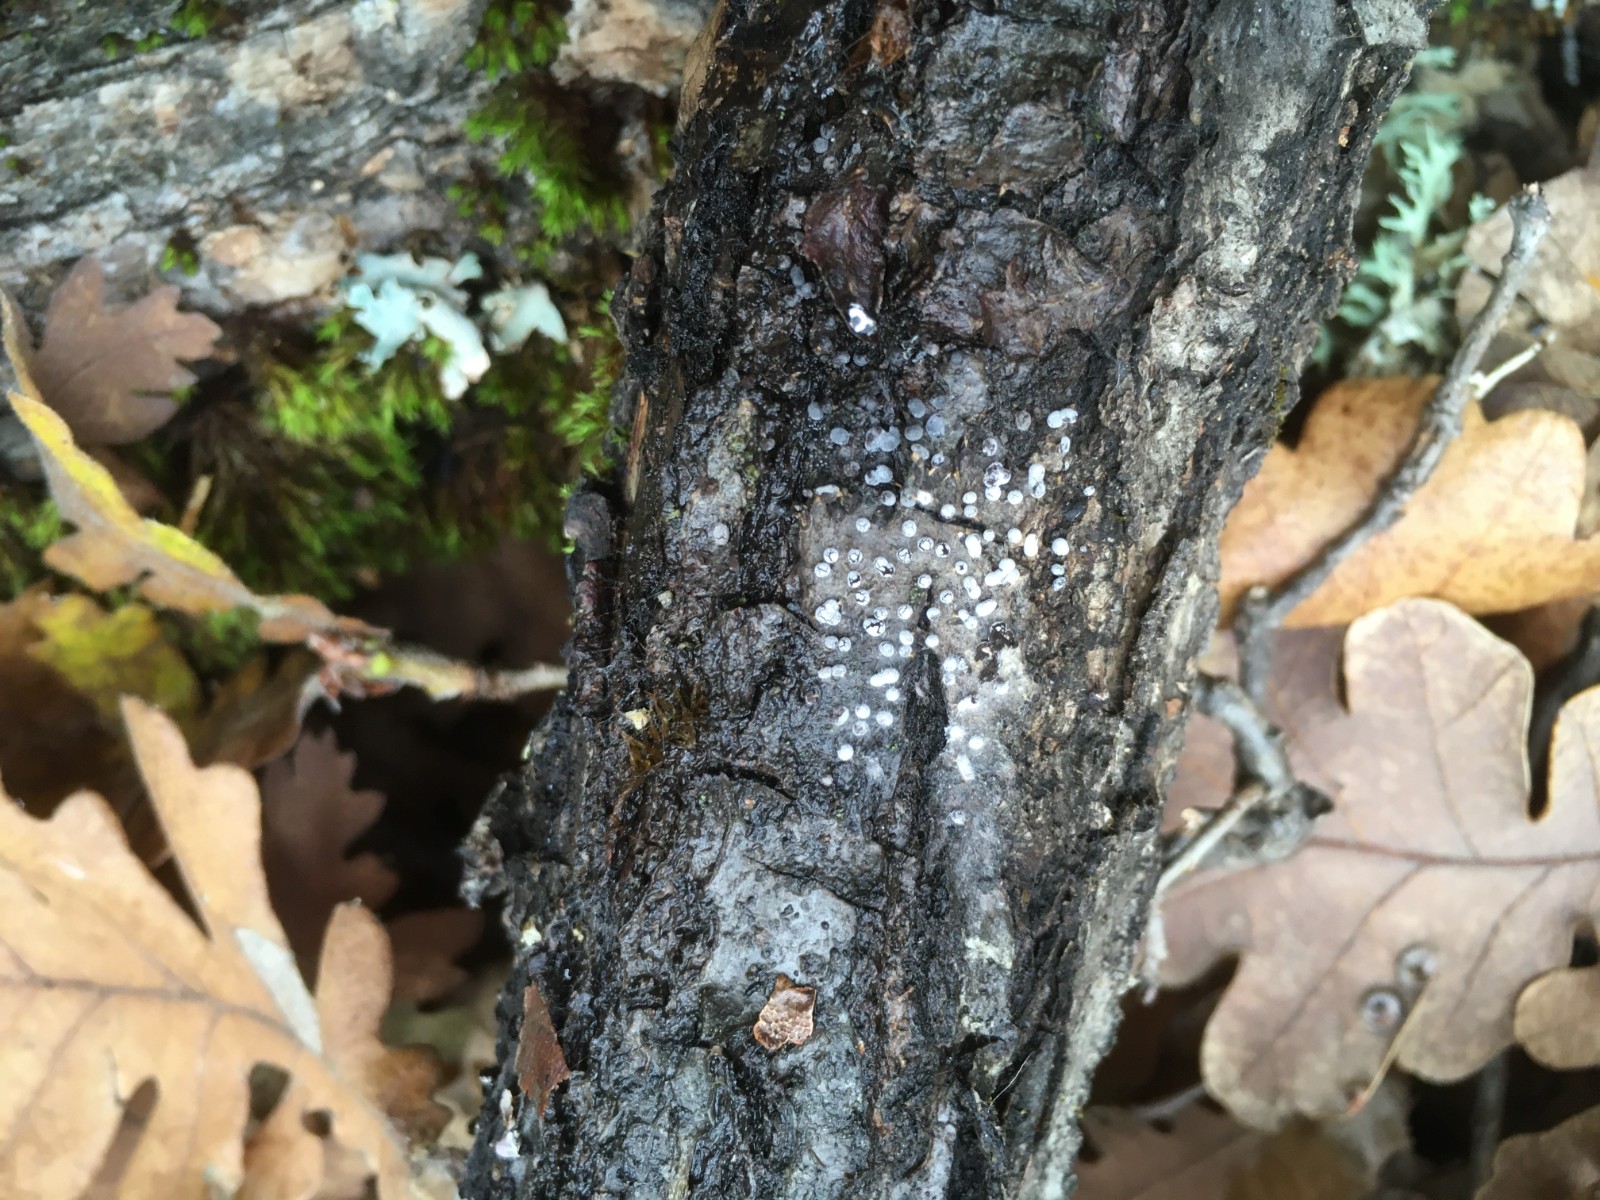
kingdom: Protozoa
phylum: Mycetozoa
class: Myxomycetes
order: Trichiales
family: Trichiaceae
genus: Trichia
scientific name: Trichia crateriformis
